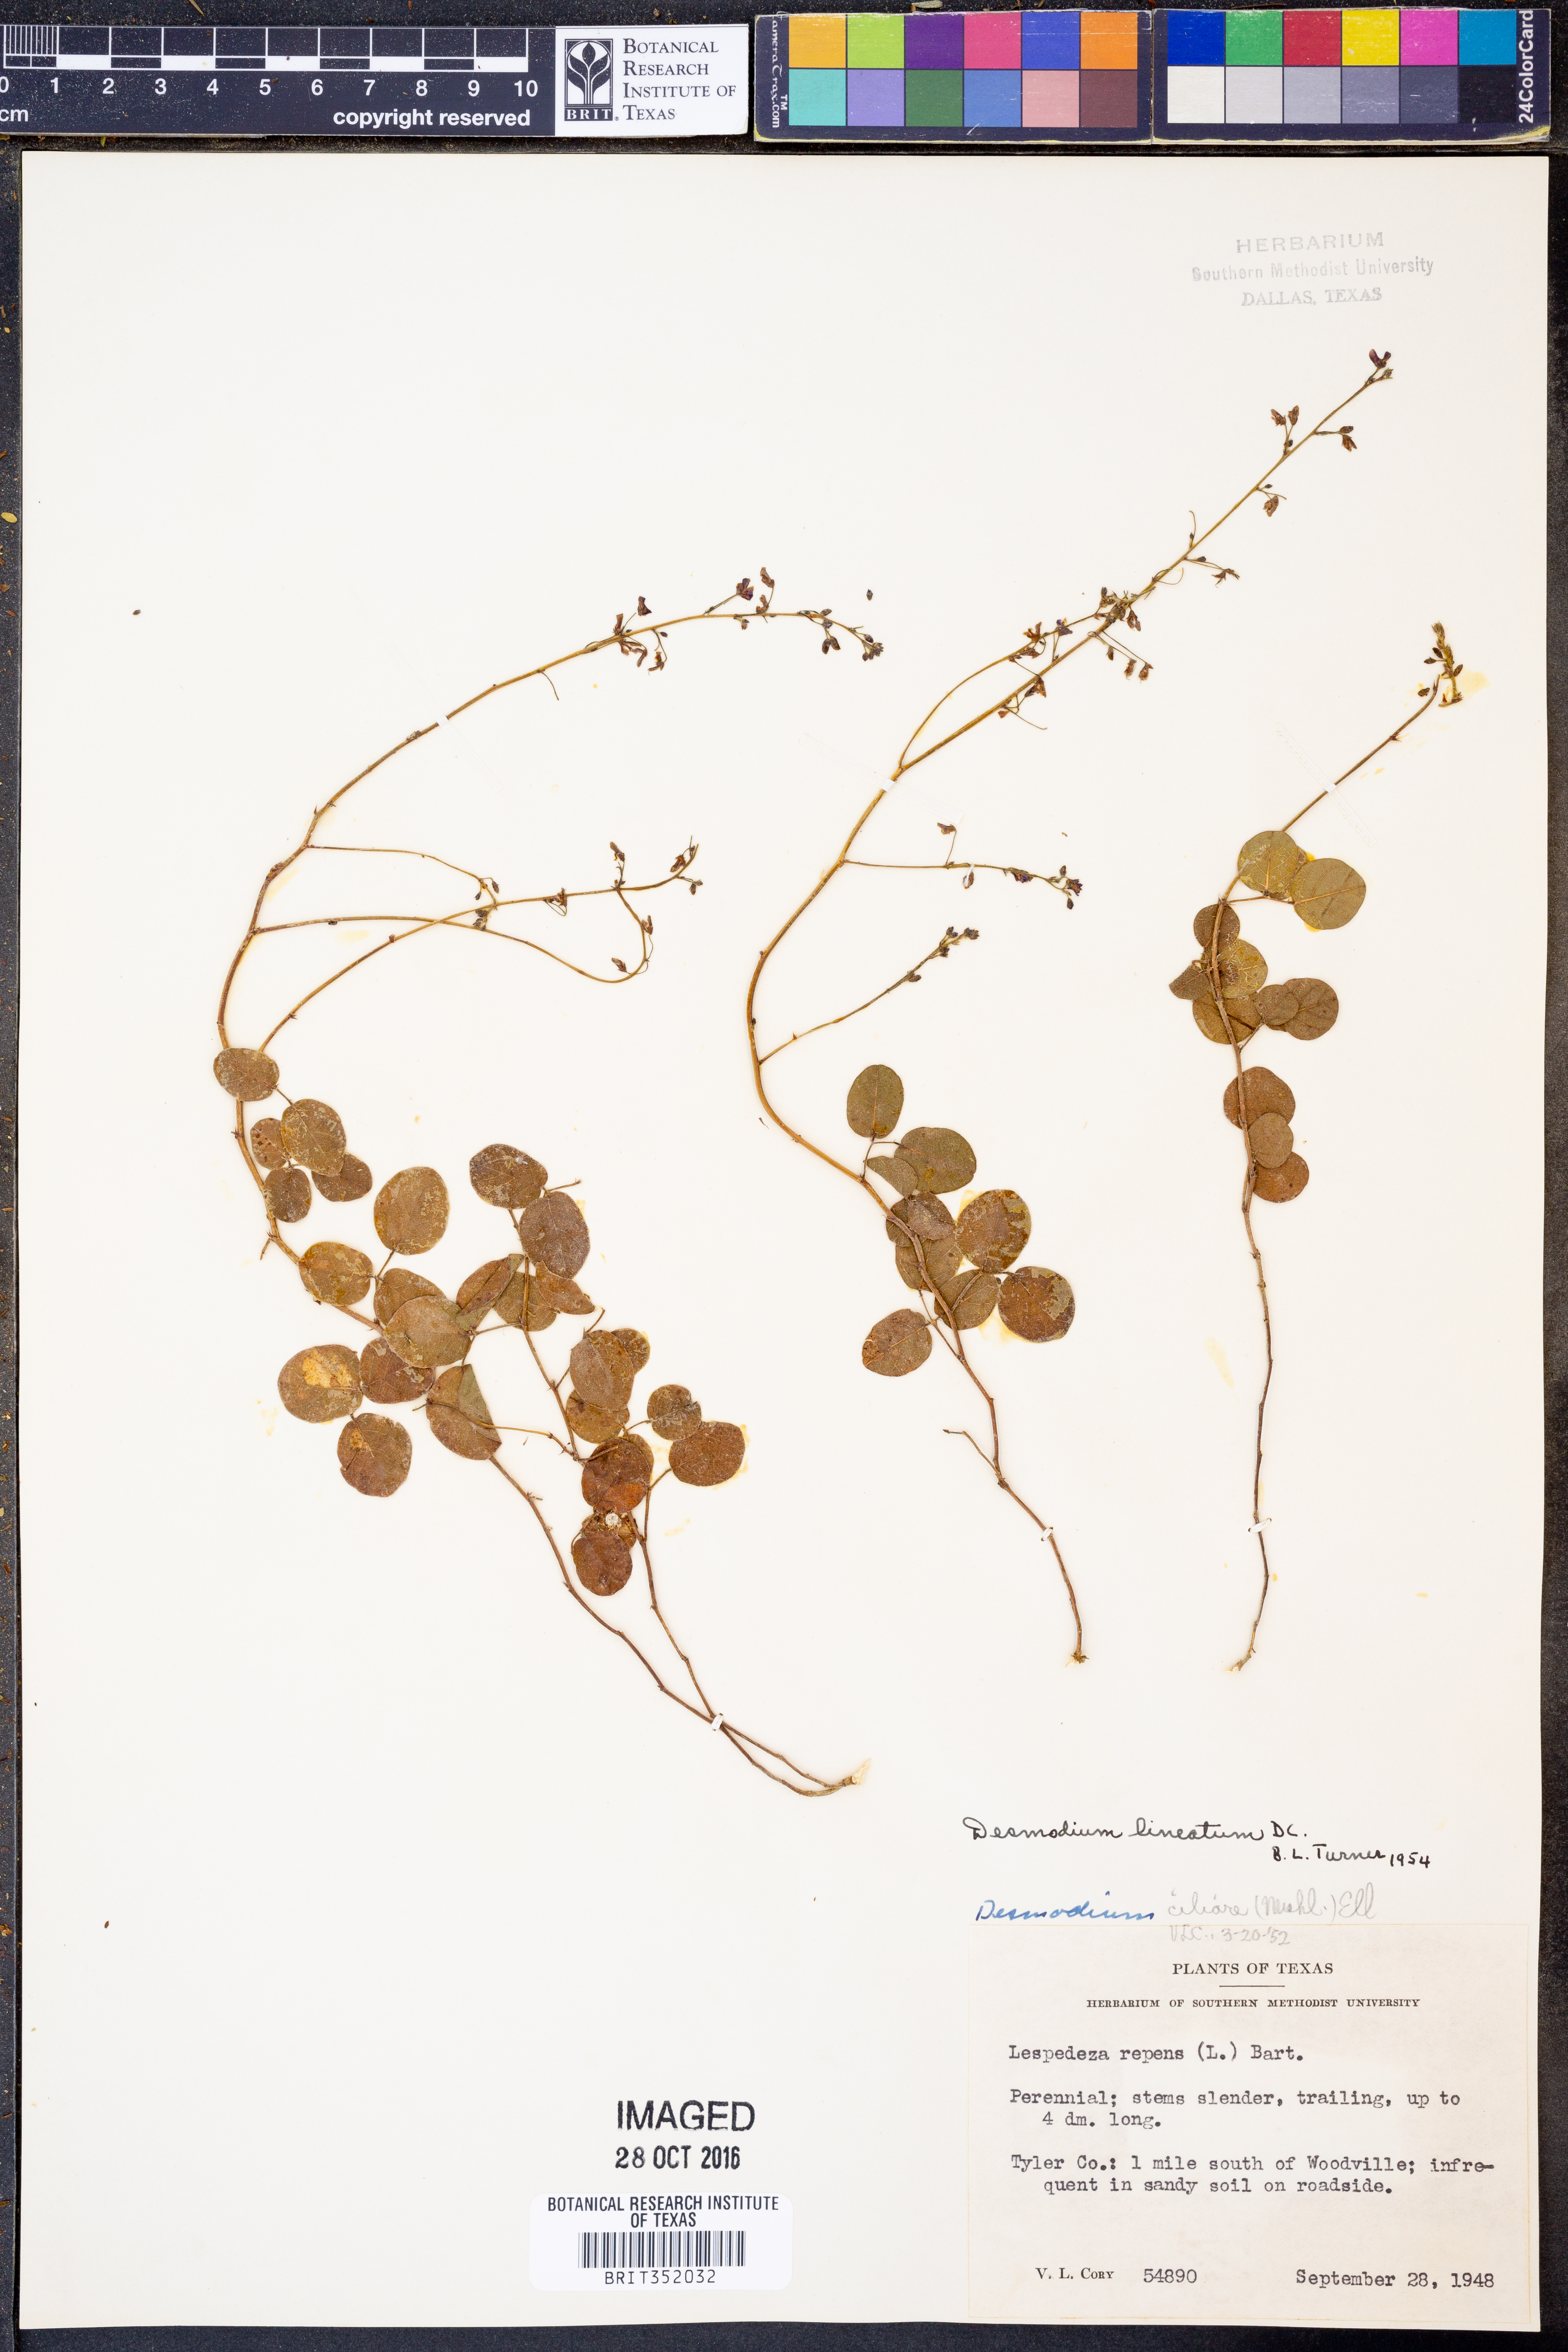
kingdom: Plantae
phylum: Tracheophyta
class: Magnoliopsida
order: Fabales
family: Fabaceae
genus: Desmodium
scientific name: Desmodium lineatum
